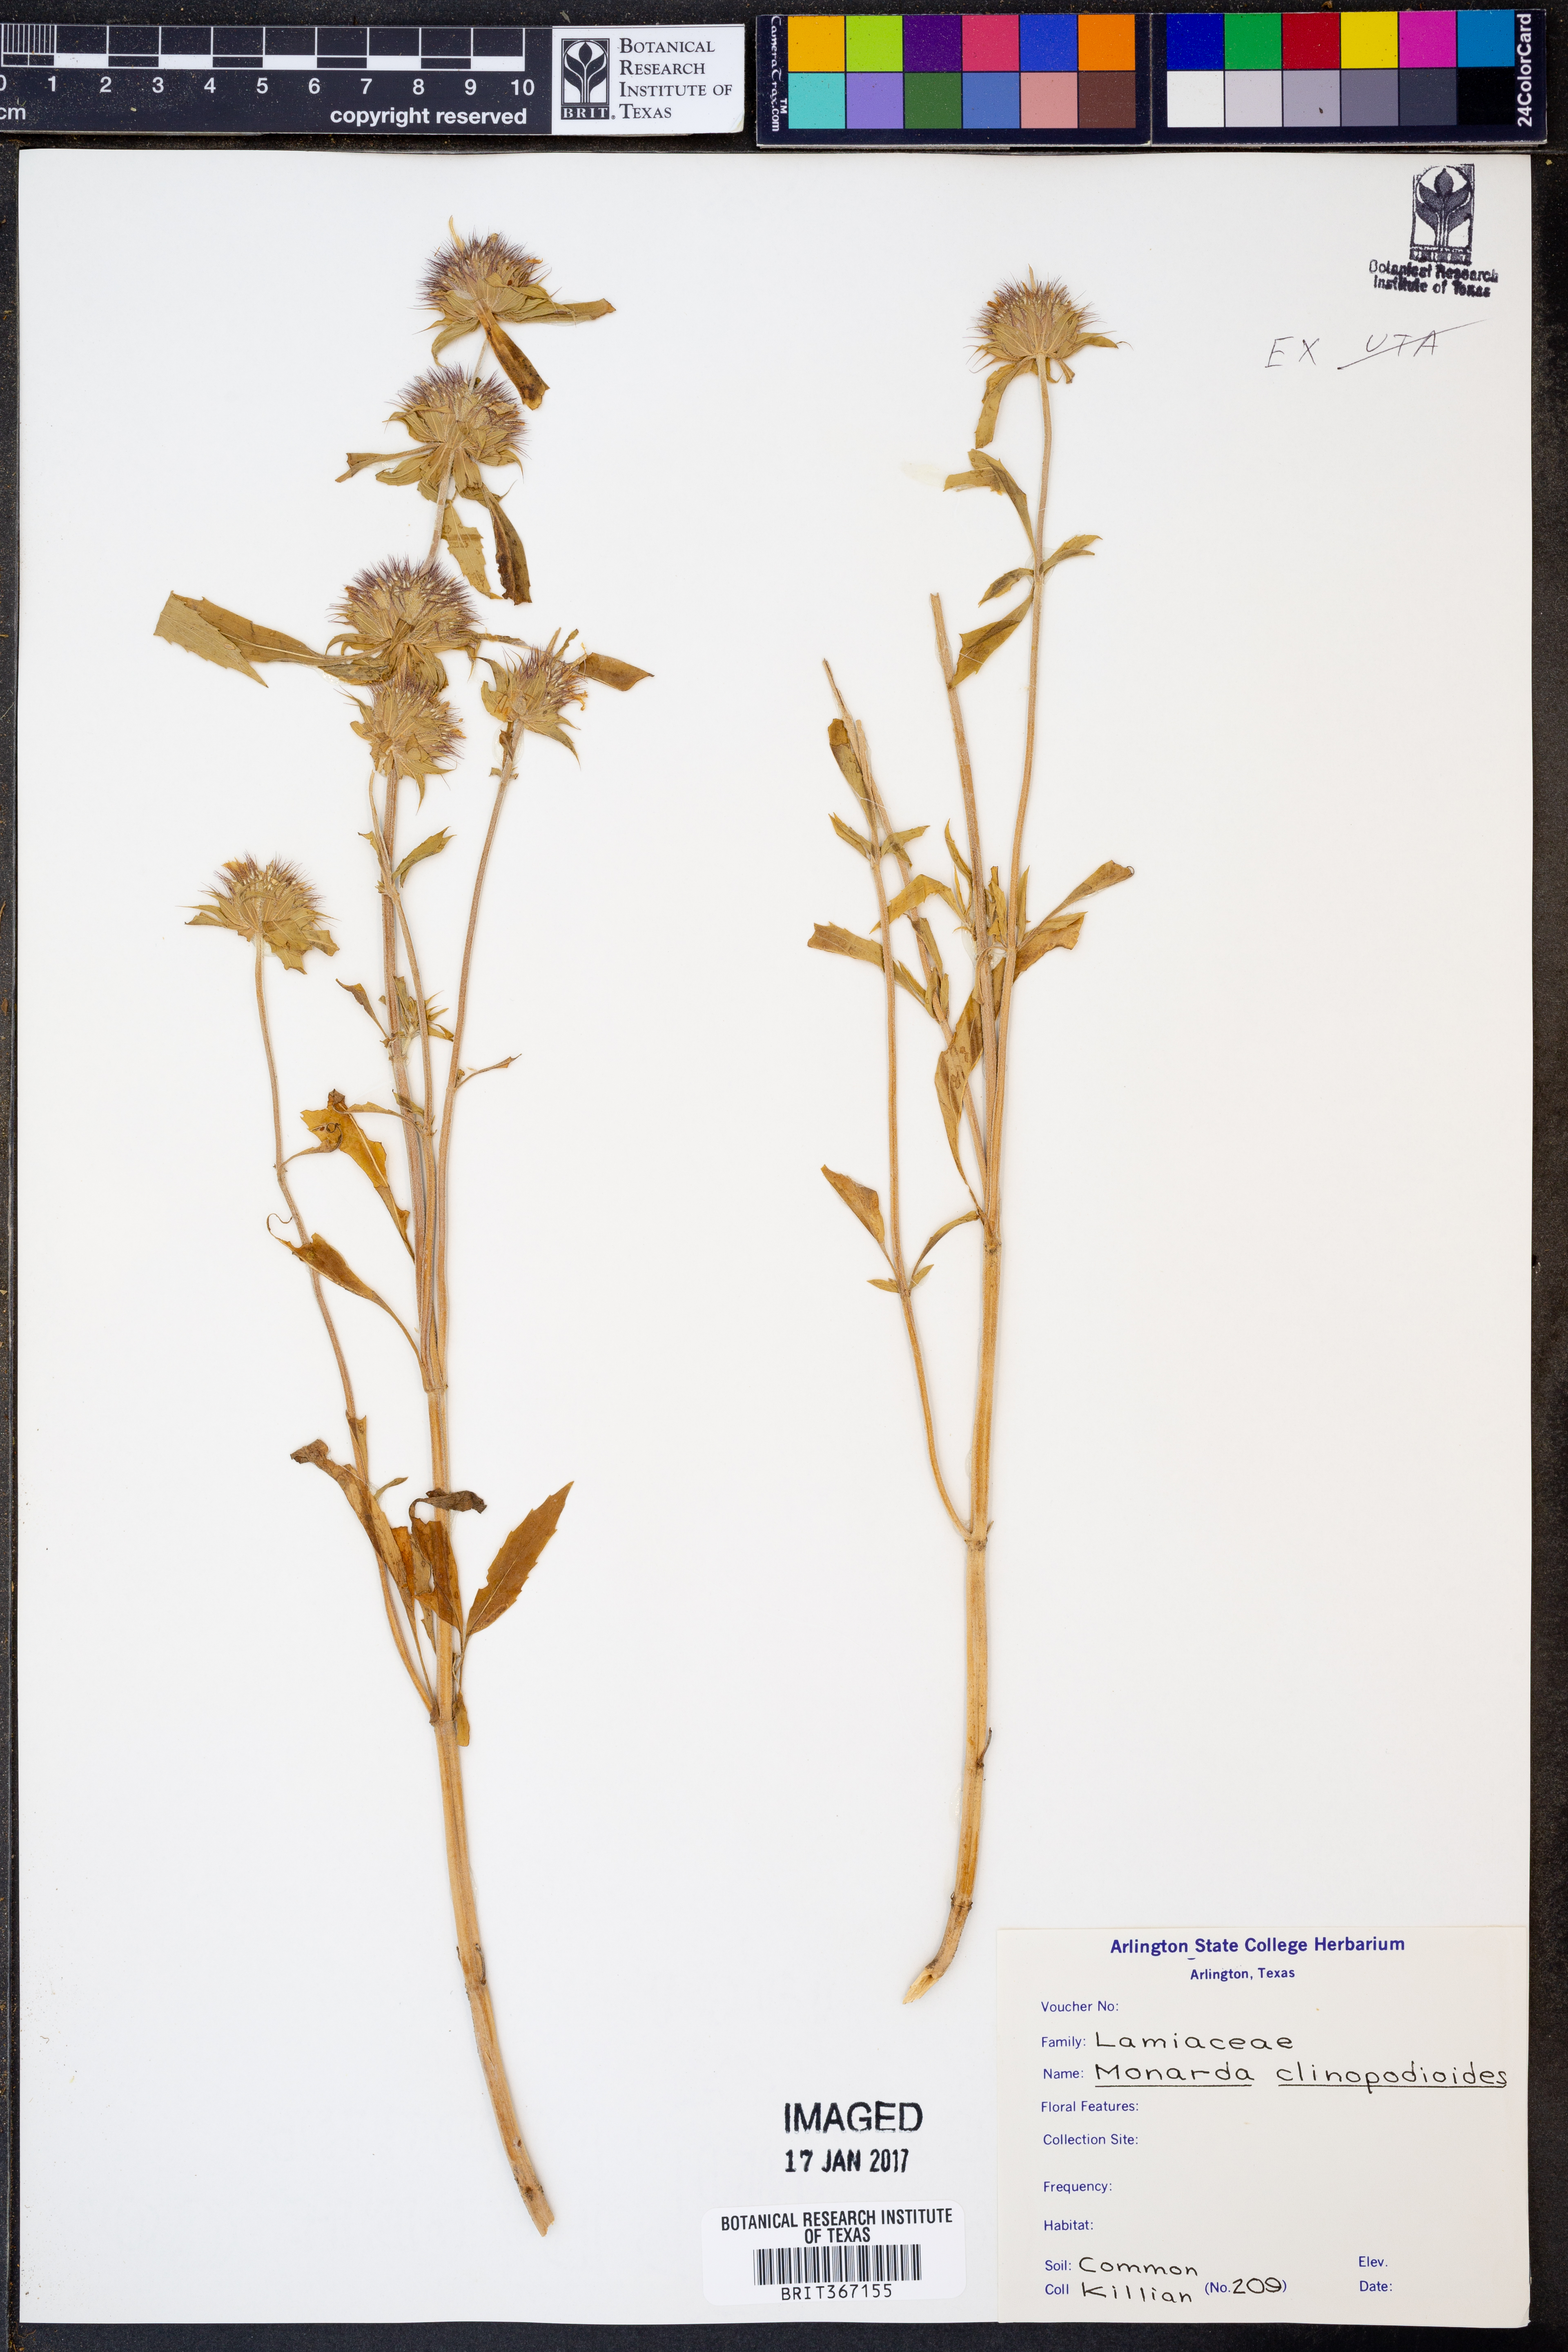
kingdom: Plantae
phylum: Tracheophyta
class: Magnoliopsida
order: Lamiales
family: Lamiaceae
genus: Monarda
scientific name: Monarda clinopodioides
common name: Basil beebalm
